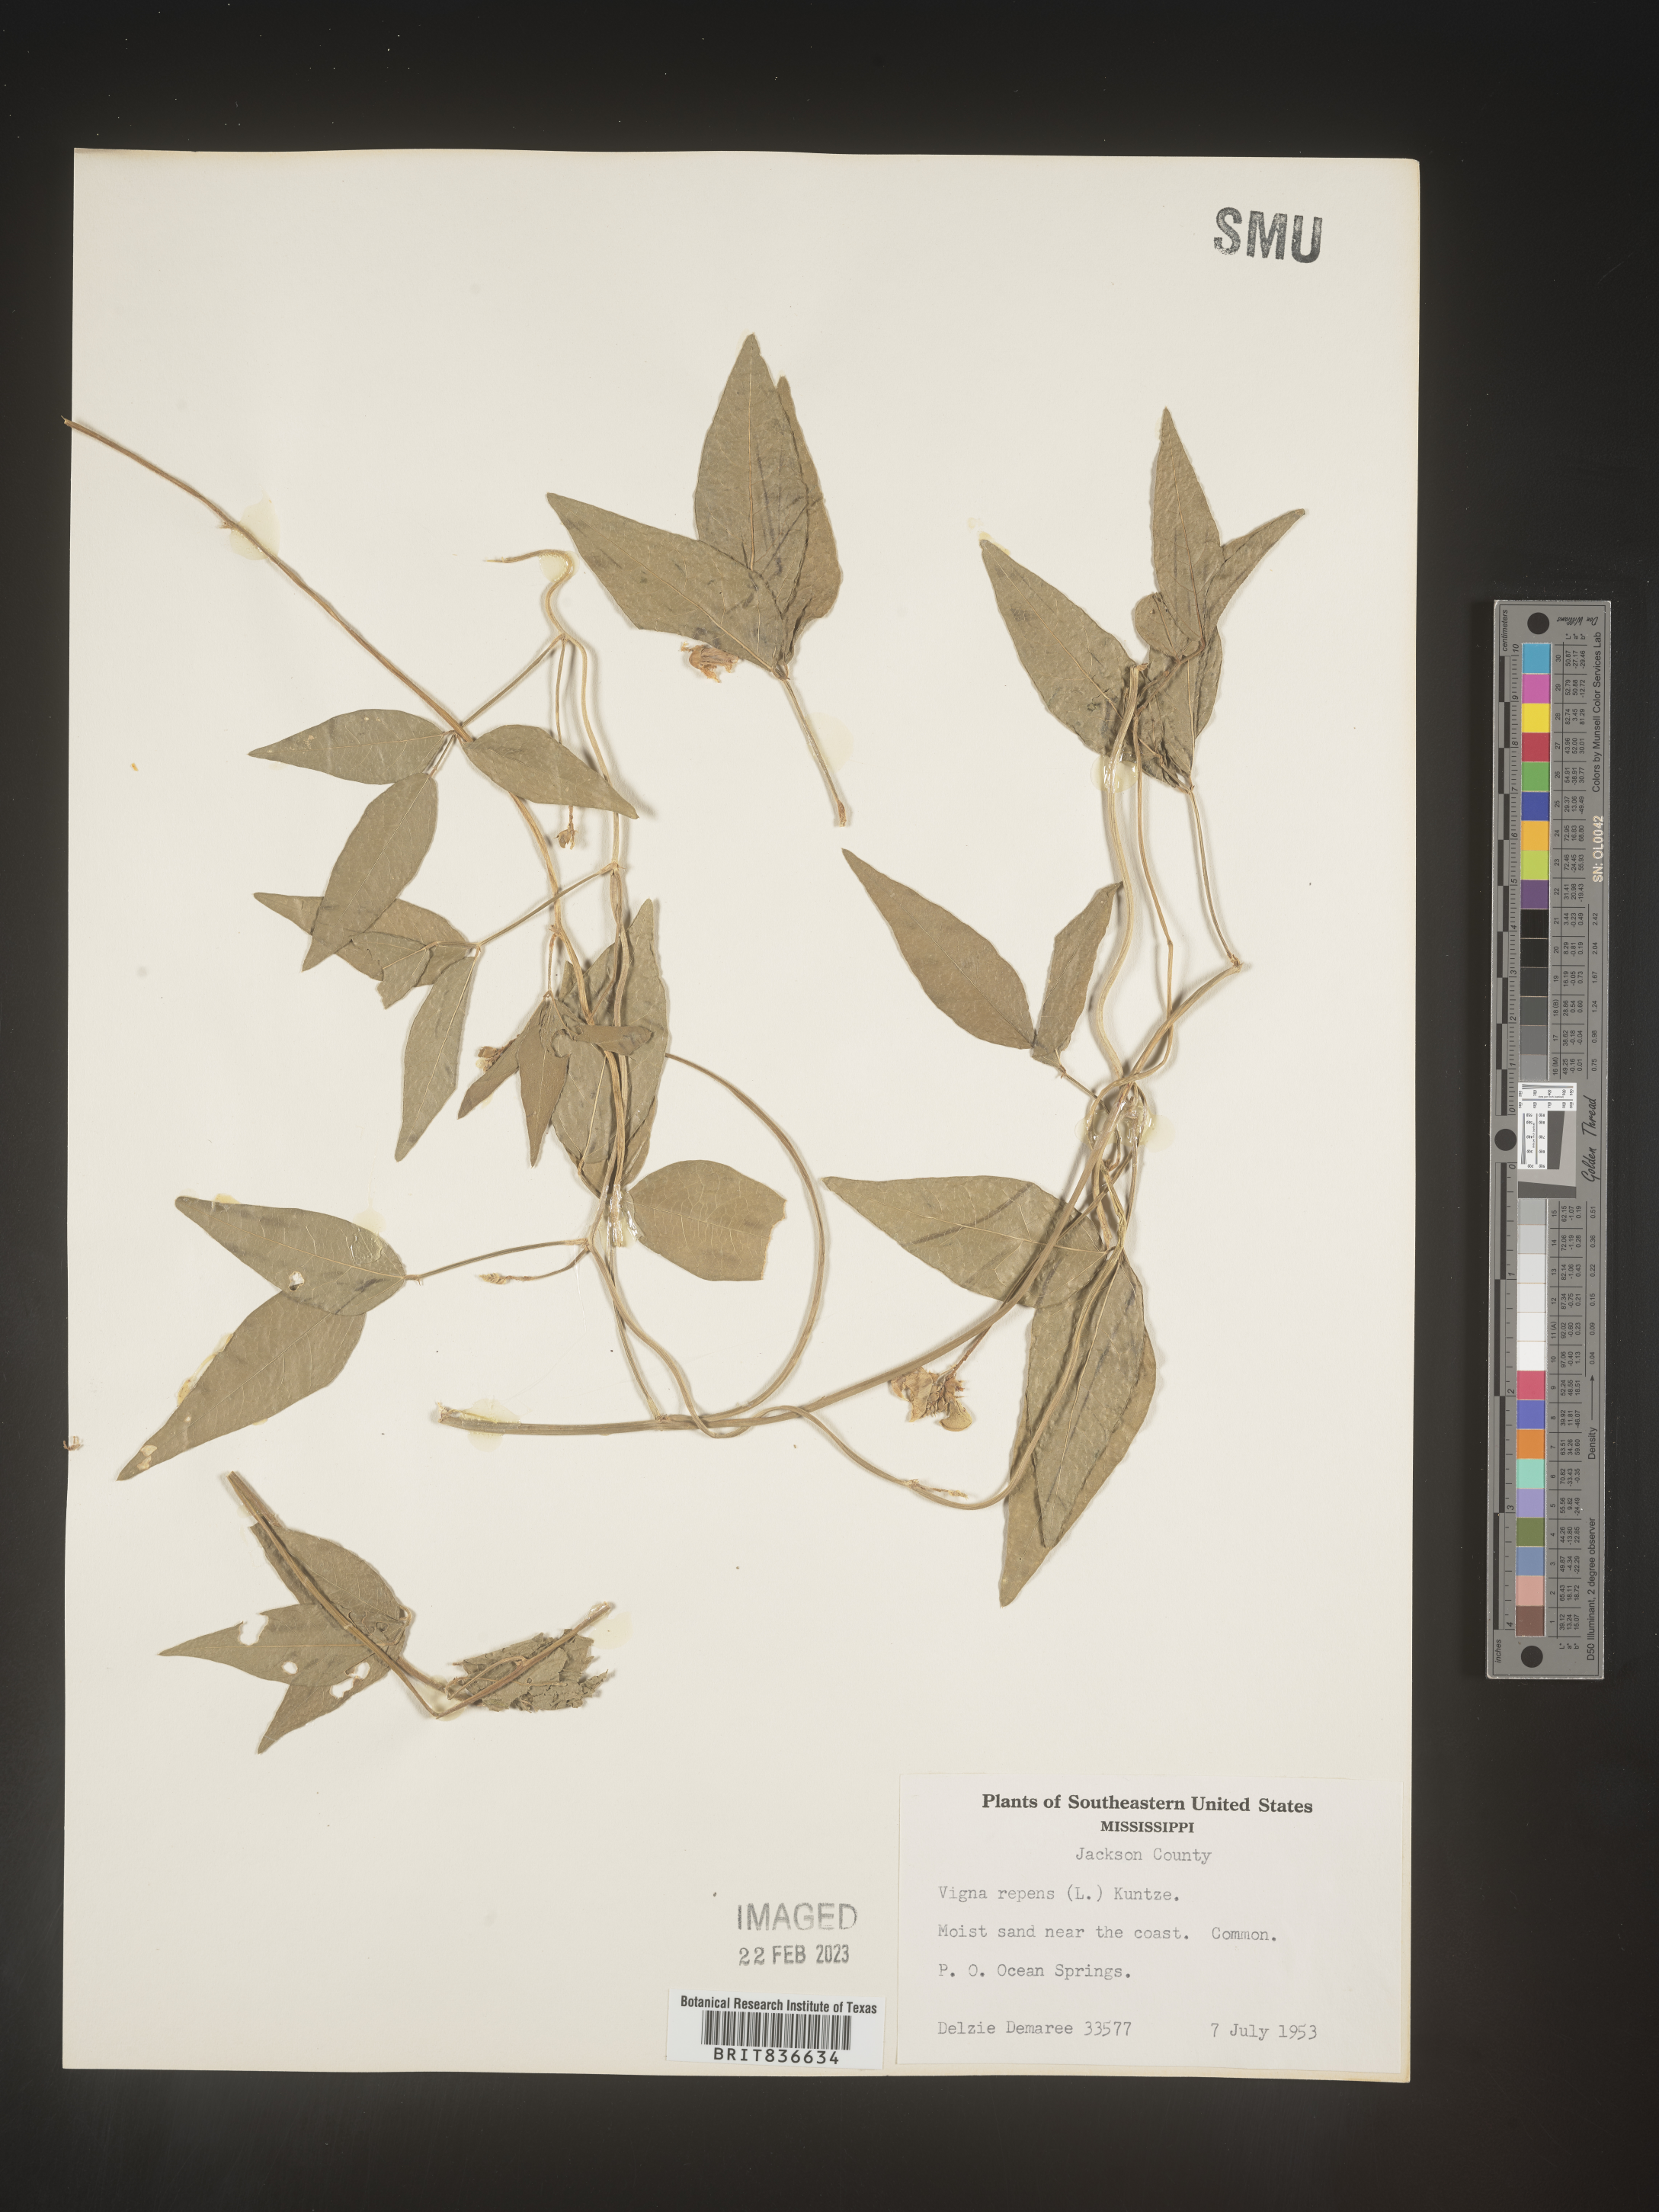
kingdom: Plantae
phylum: Tracheophyta
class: Magnoliopsida
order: Fabales
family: Fabaceae
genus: Vigna
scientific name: Vigna
